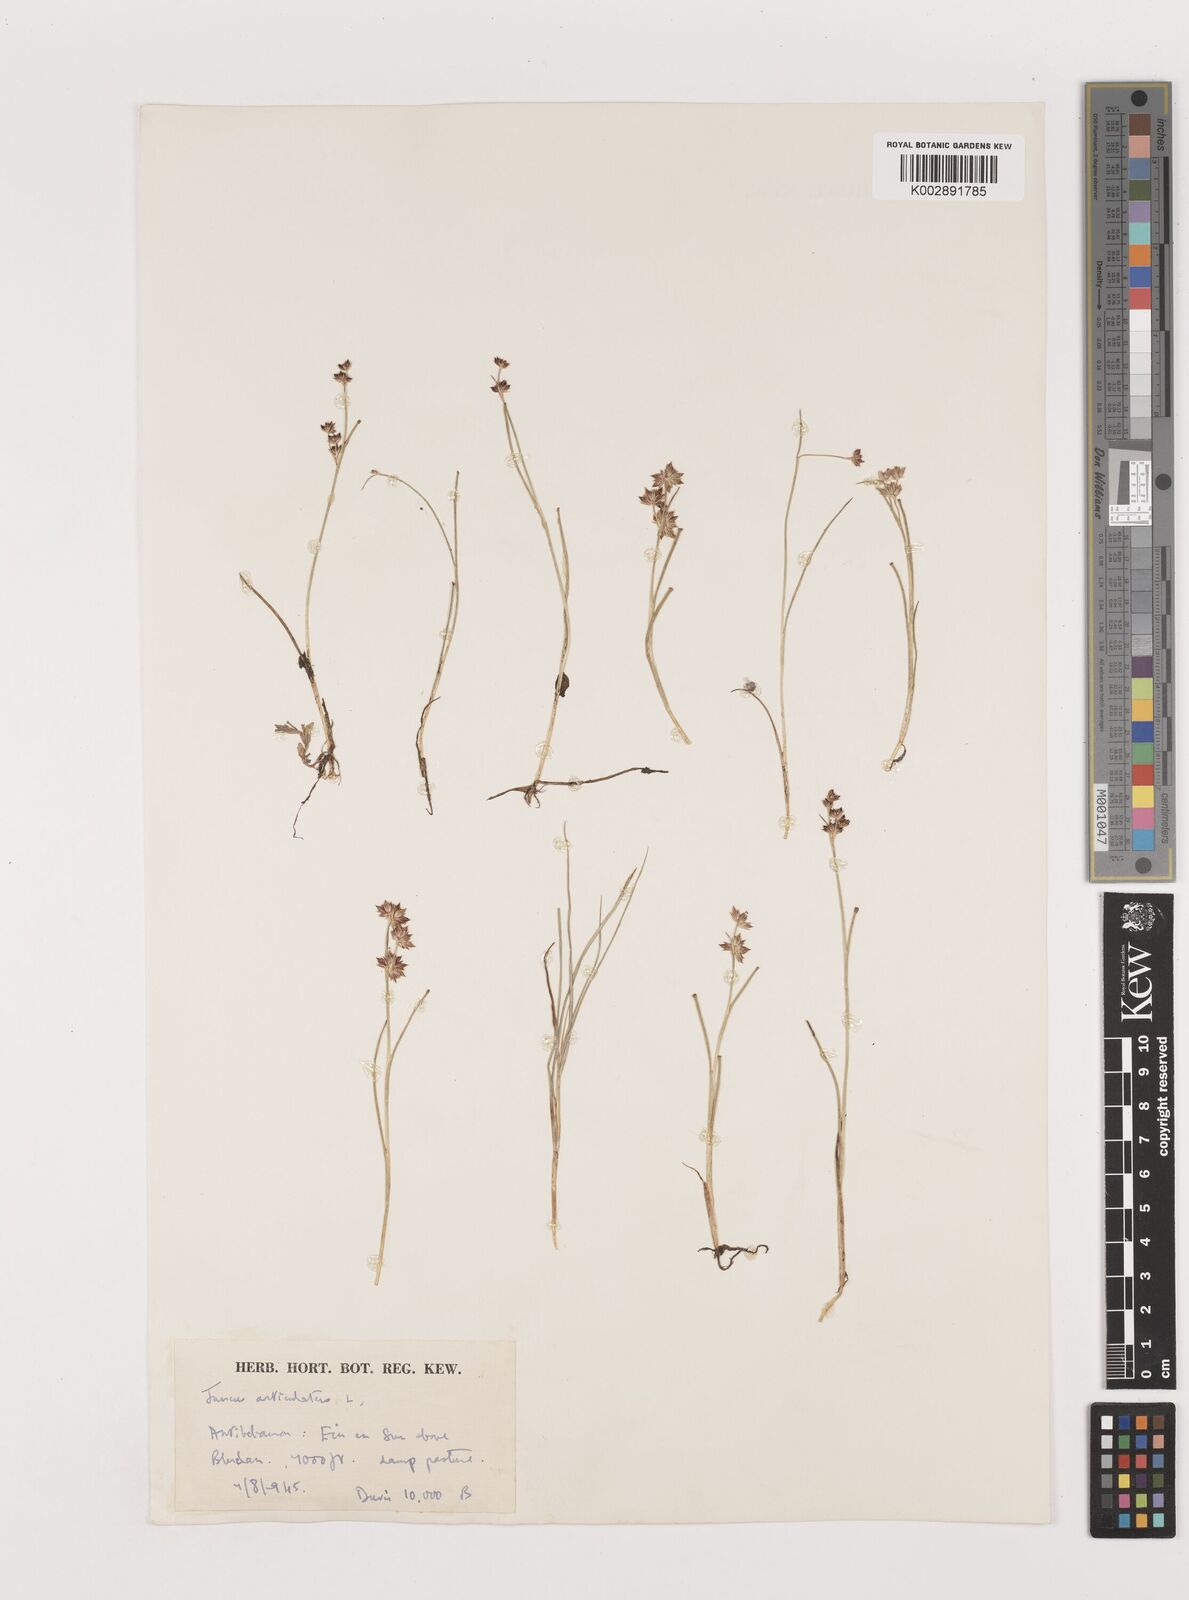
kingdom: Plantae
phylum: Tracheophyta
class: Liliopsida
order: Poales
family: Juncaceae
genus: Juncus
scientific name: Juncus articulatus
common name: Jointed rush
